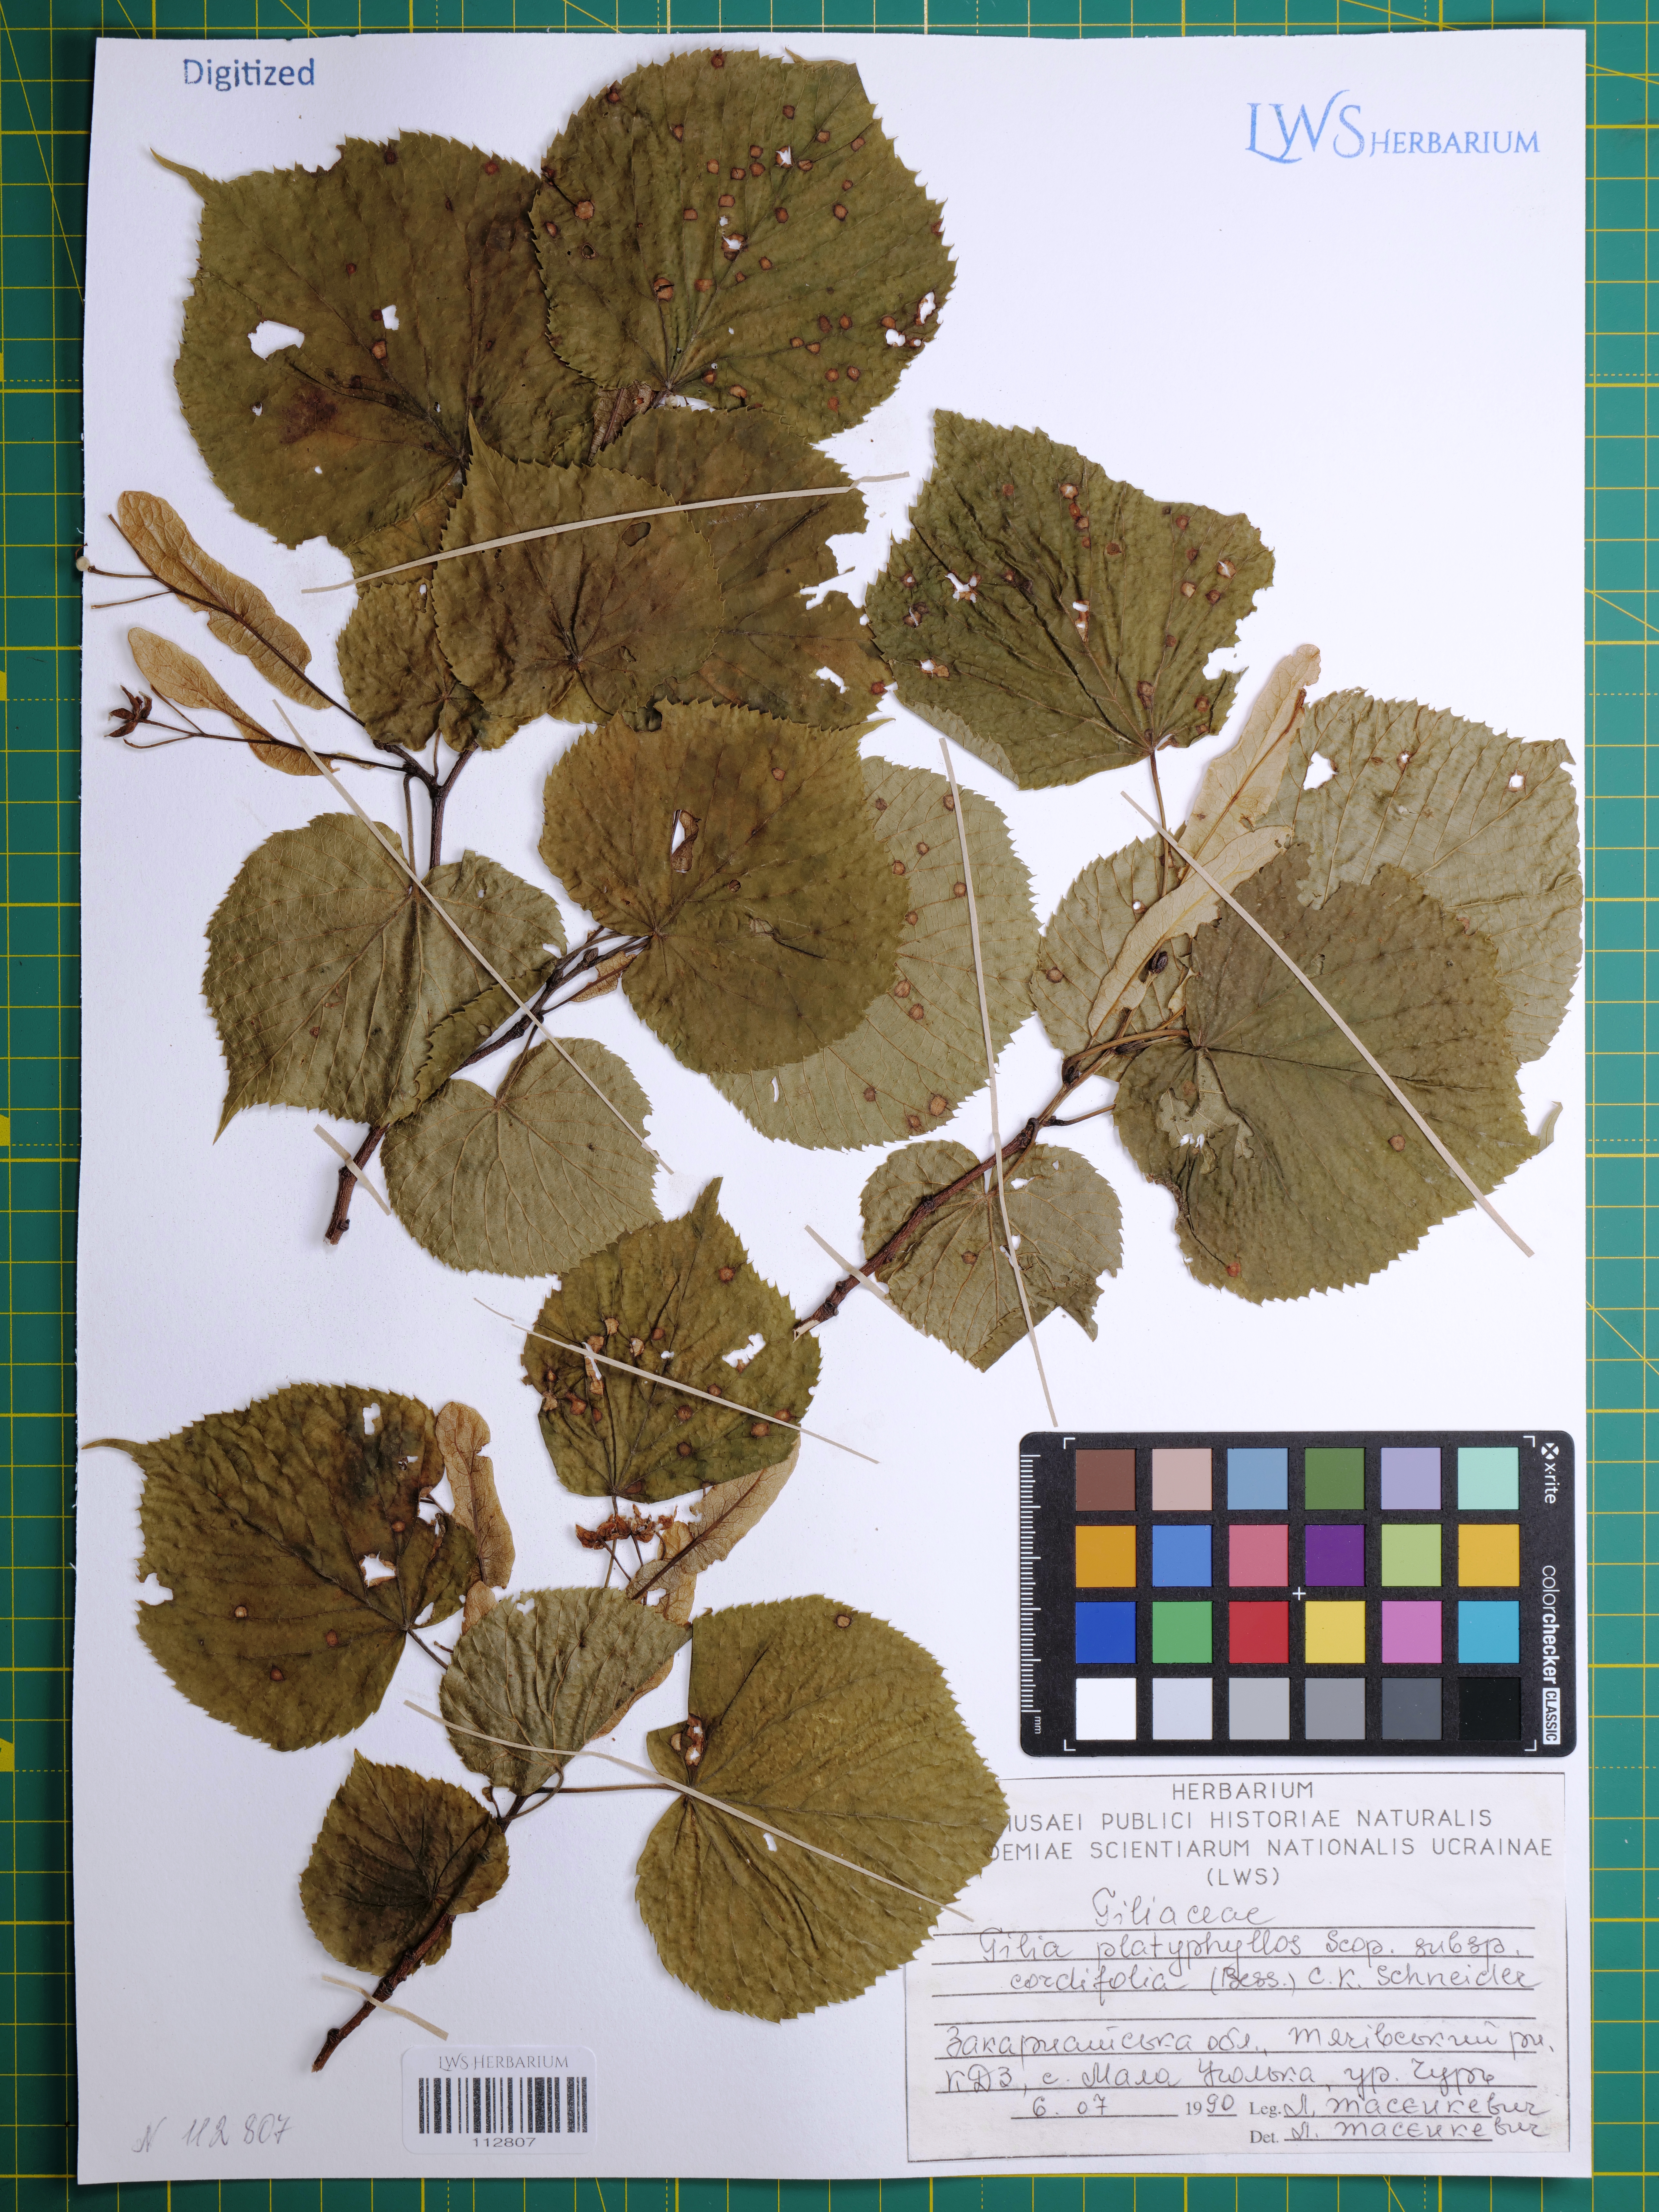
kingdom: Plantae
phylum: Tracheophyta
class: Magnoliopsida
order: Malvales
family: Malvaceae
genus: Tilia
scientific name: Tilia platyphyllos
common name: Large-leaved lime
